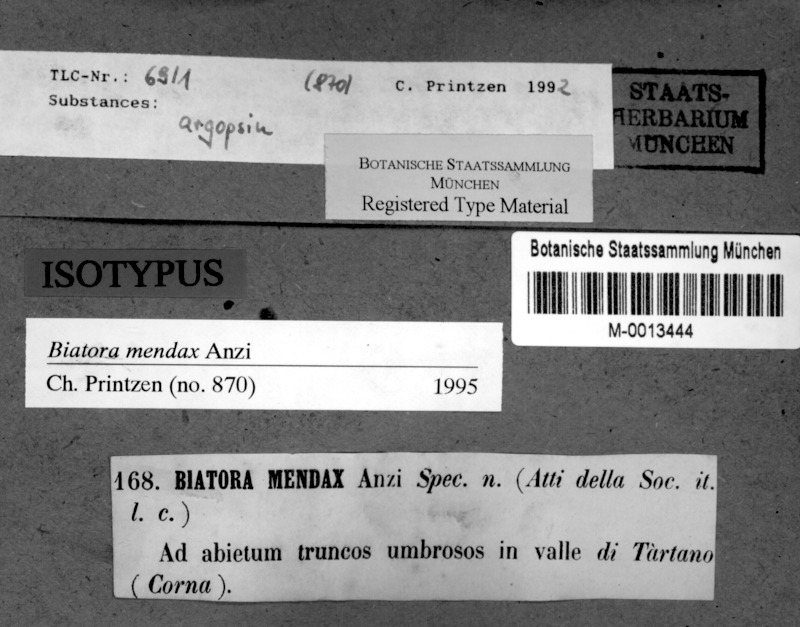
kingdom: Fungi
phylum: Ascomycota
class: Lecanoromycetes
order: Lecanorales
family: Ramalinaceae
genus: Biatora
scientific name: Biatora mendax
